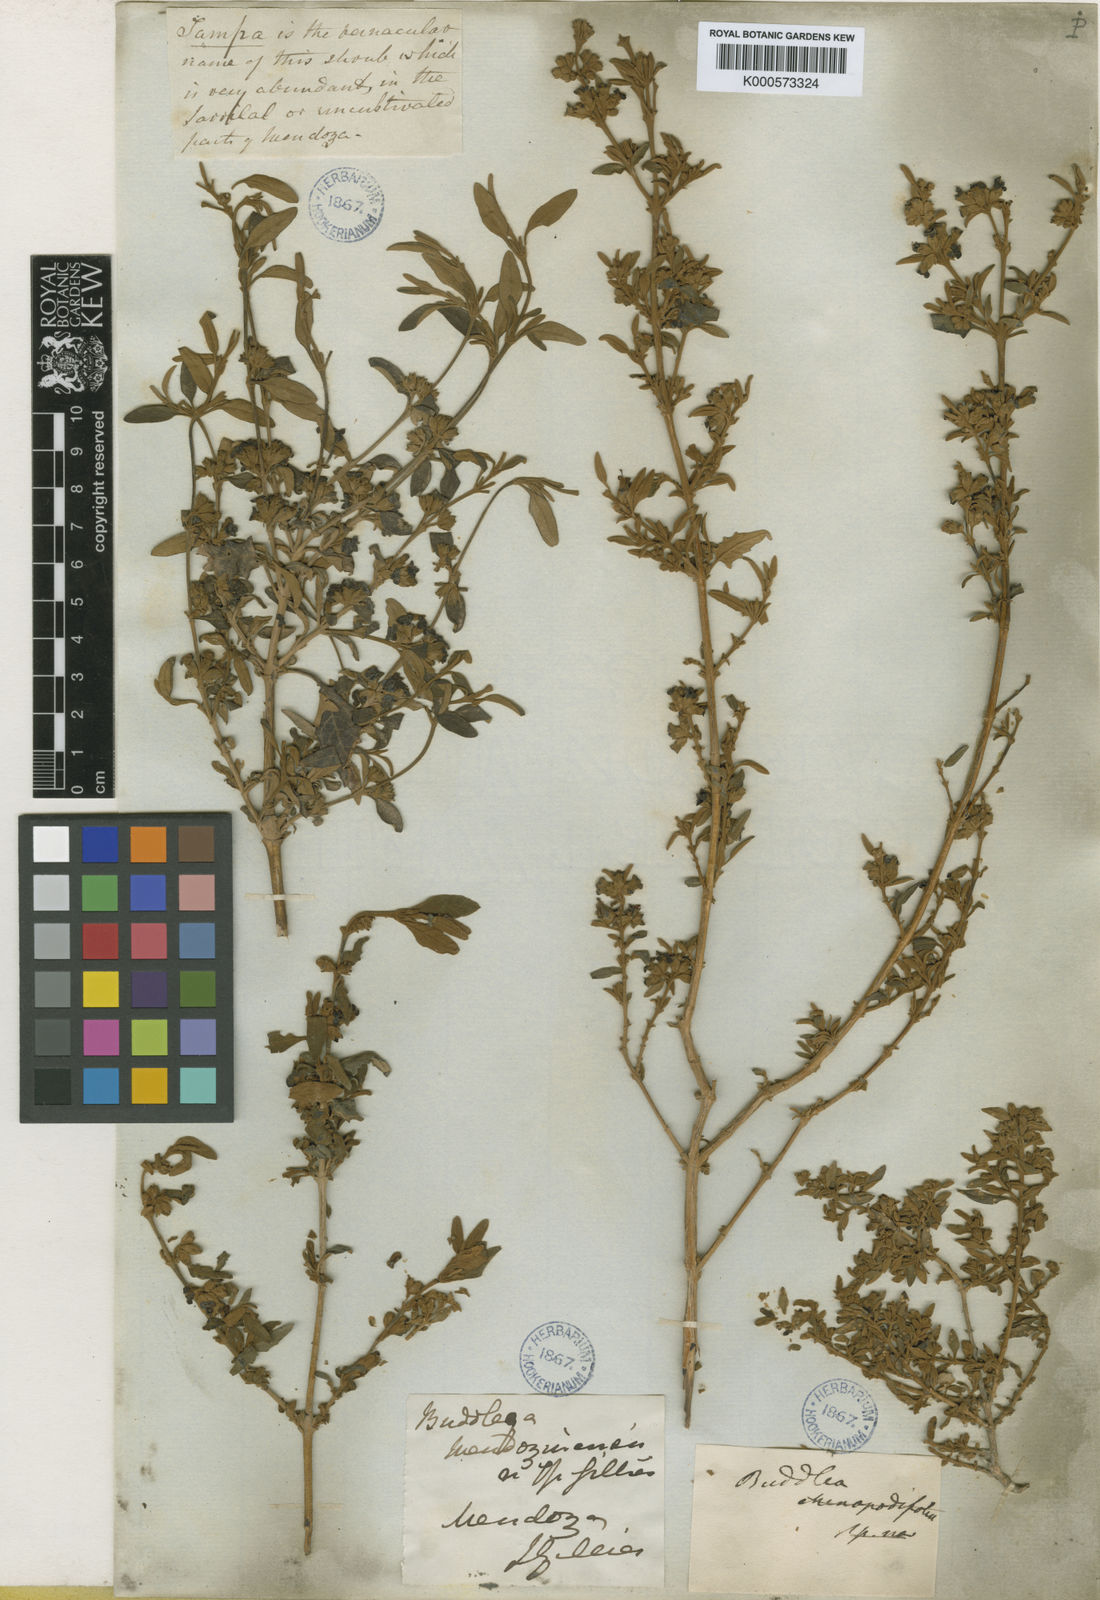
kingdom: Plantae
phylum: Tracheophyta
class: Magnoliopsida
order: Lamiales
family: Scrophulariaceae
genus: Buddleja
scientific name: Buddleja
